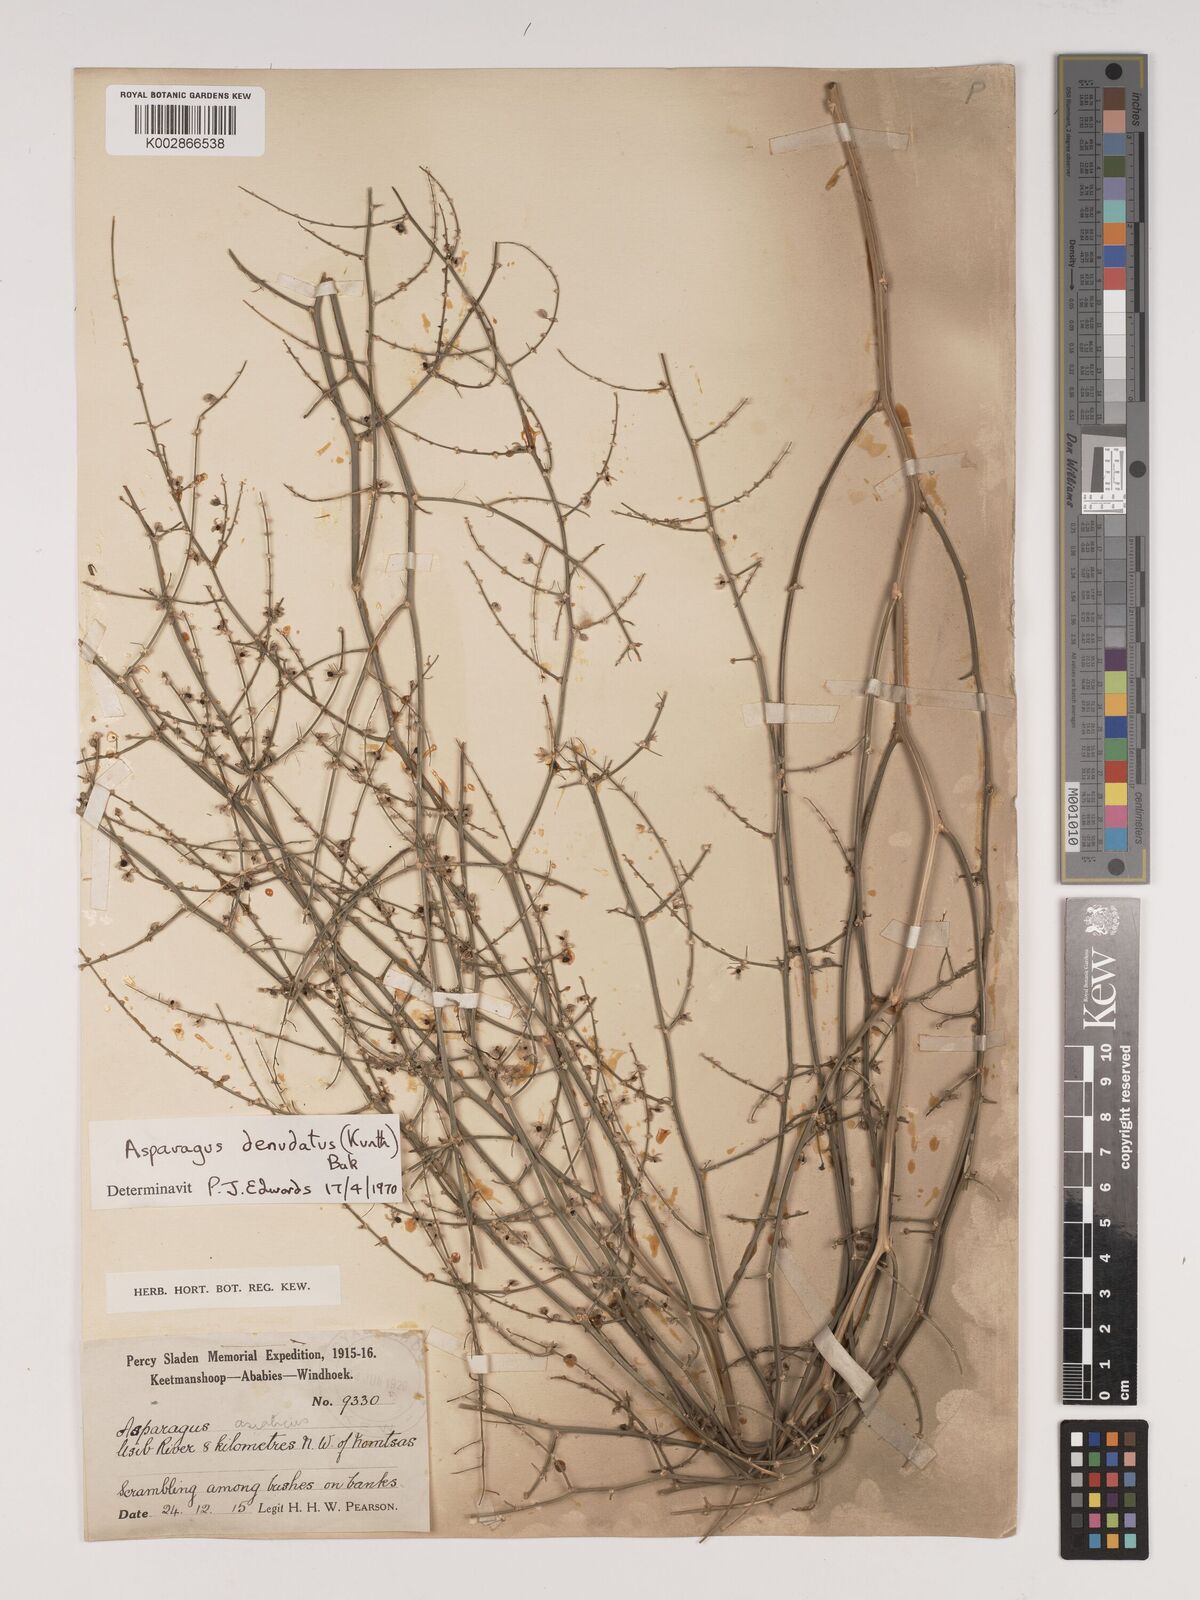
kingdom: Plantae
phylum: Tracheophyta
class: Liliopsida
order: Asparagales
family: Asparagaceae
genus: Asparagus
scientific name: Asparagus denudatus
